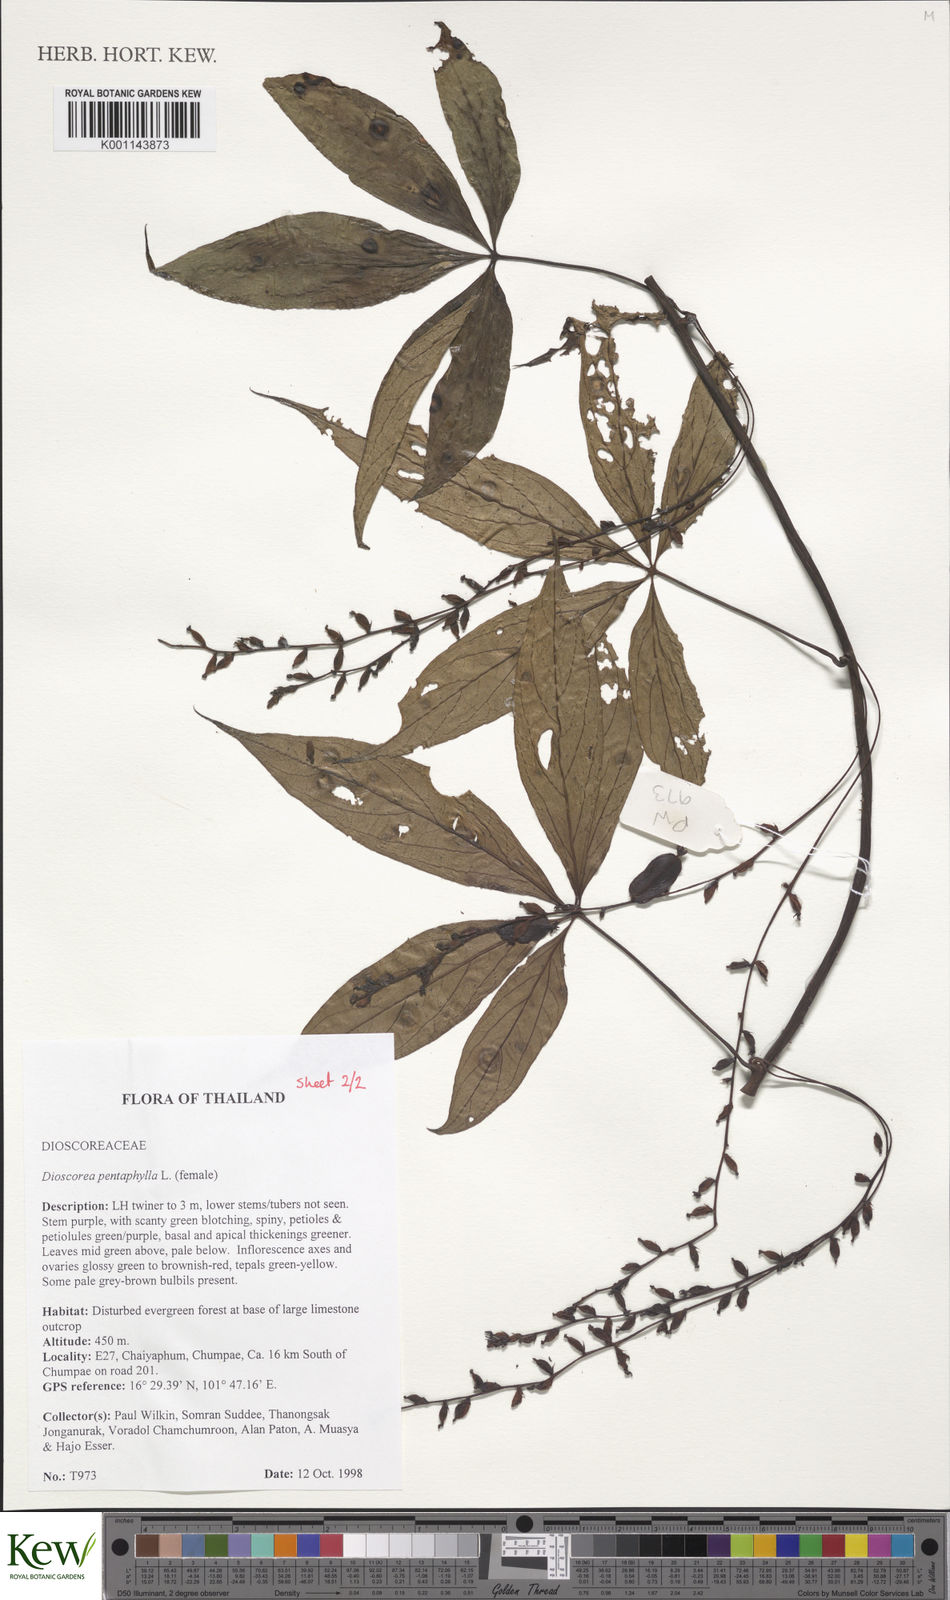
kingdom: Plantae
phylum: Tracheophyta
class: Liliopsida
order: Dioscoreales
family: Dioscoreaceae
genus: Dioscorea
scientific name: Dioscorea pentaphylla
